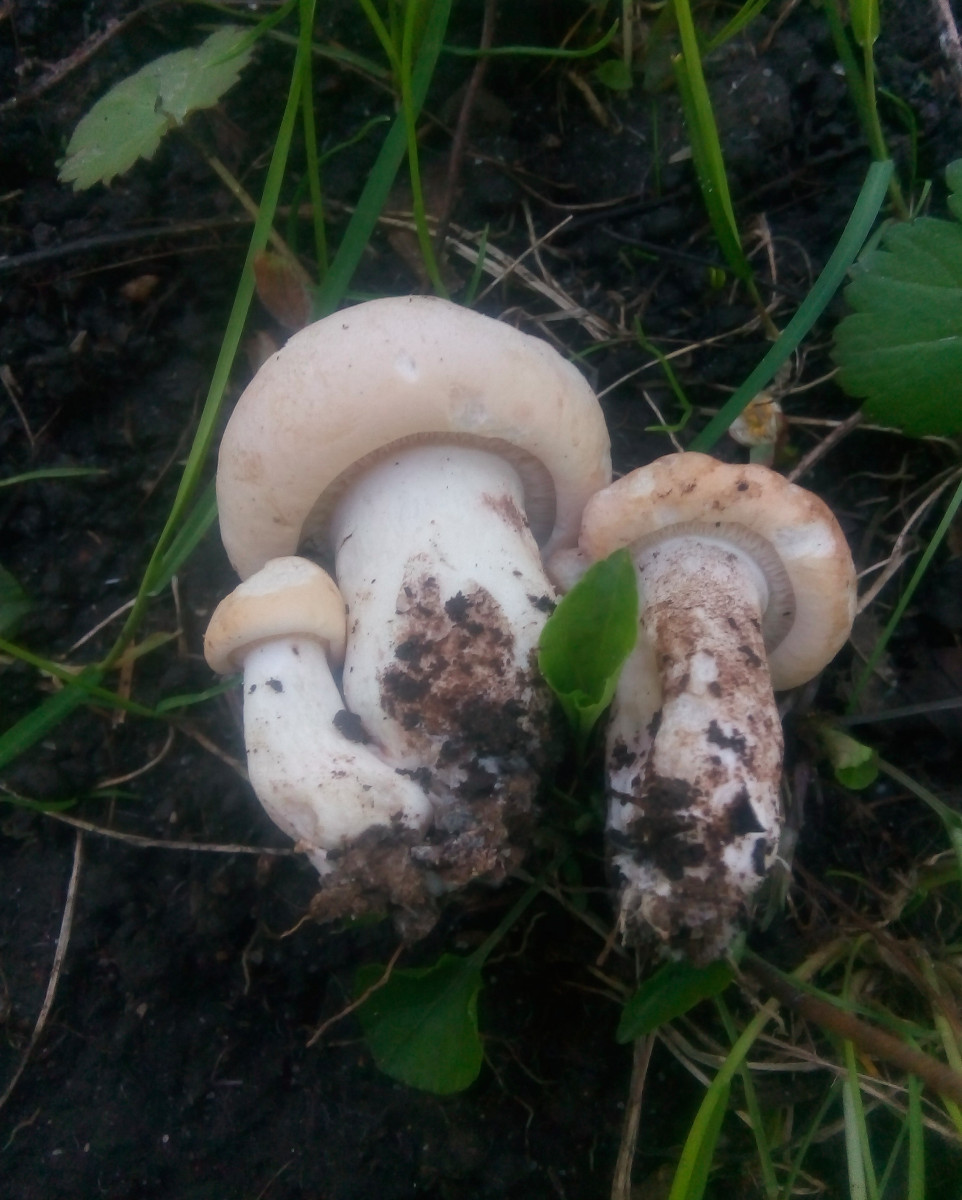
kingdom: Fungi
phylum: Basidiomycota
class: Agaricomycetes
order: Agaricales
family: Lyophyllaceae
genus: Calocybe
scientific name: Calocybe gambosa
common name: vårmusseron
